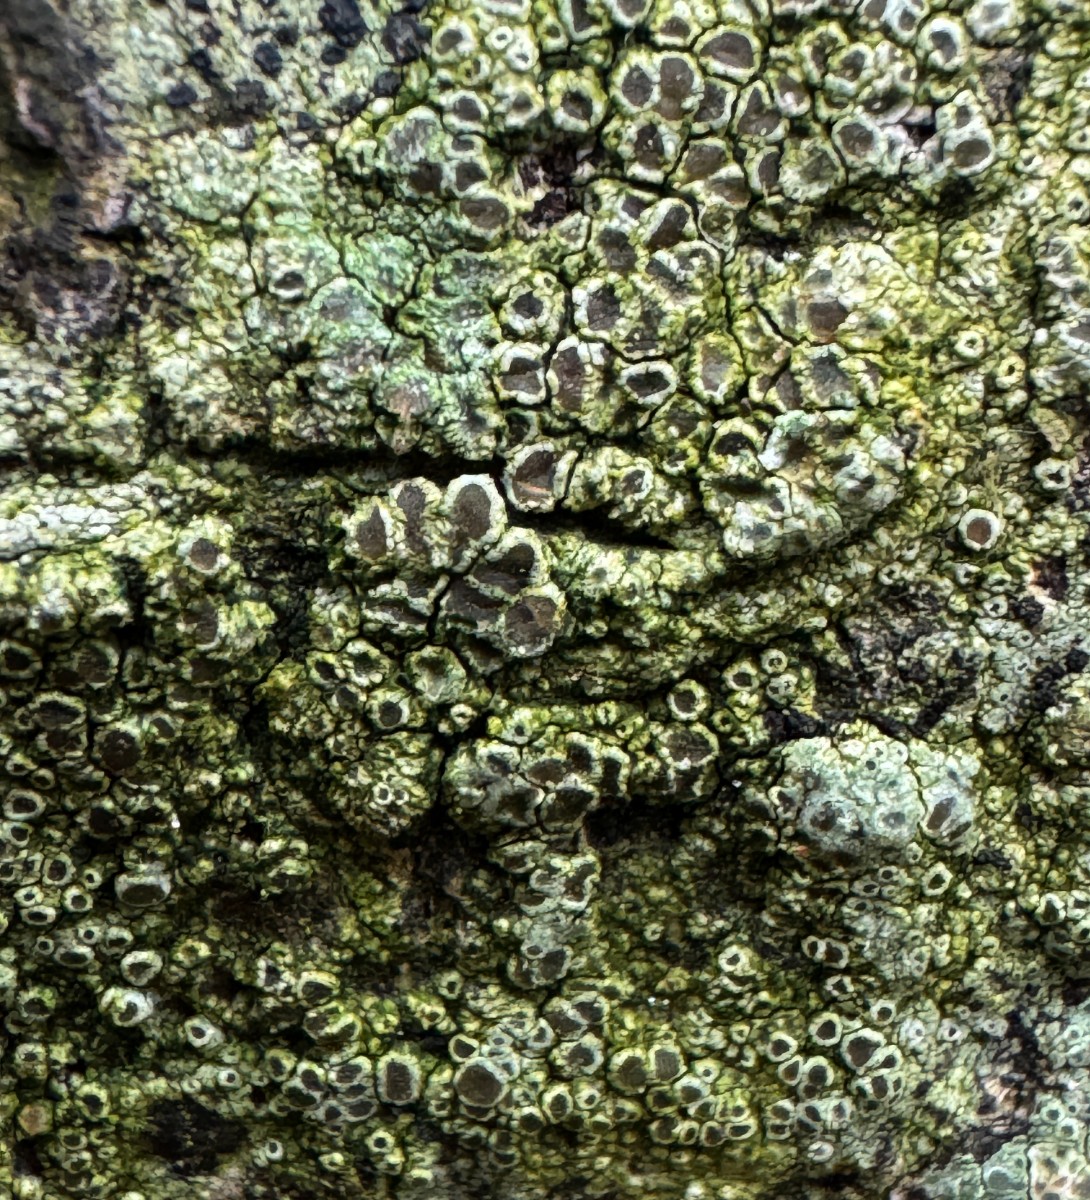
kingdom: Fungi
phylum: Ascomycota
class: Lecanoromycetes
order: Lecanorales
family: Lecanoraceae
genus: Lecanora
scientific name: Lecanora
